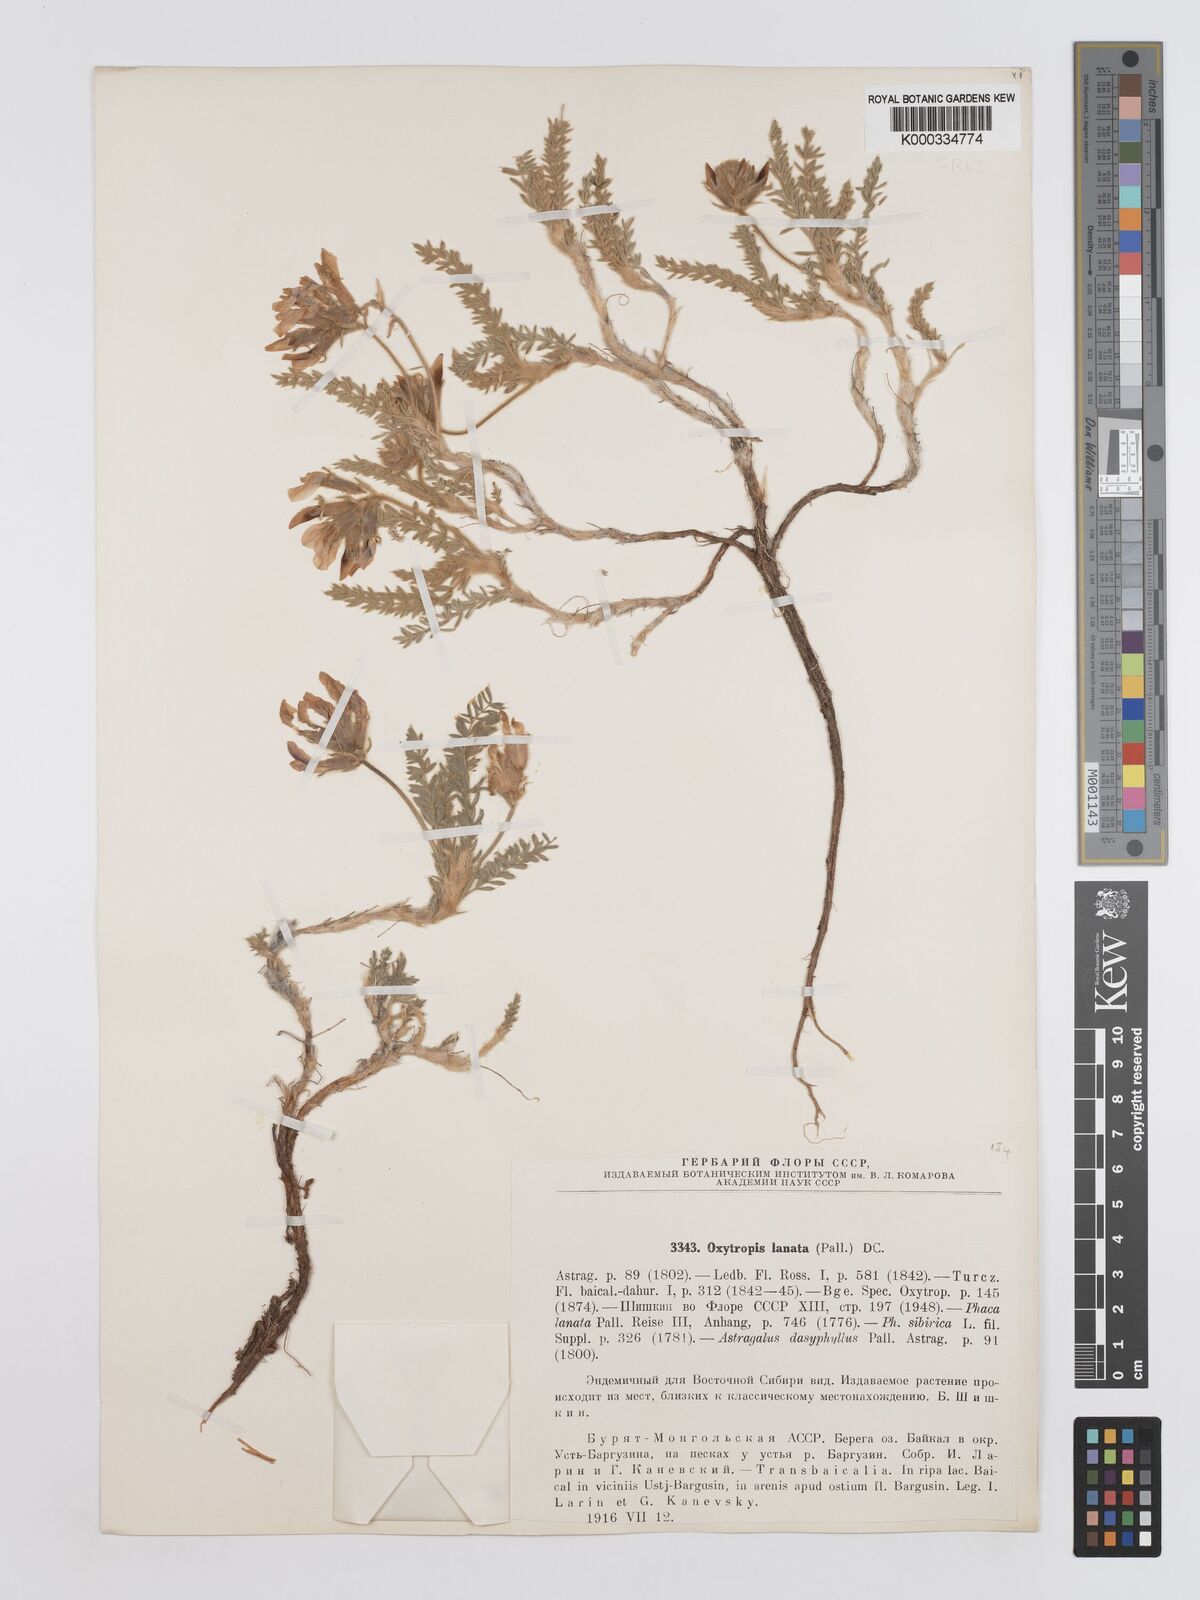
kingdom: Plantae
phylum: Tracheophyta
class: Magnoliopsida
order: Fabales
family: Fabaceae
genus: Oxytropis
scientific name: Oxytropis lanata
